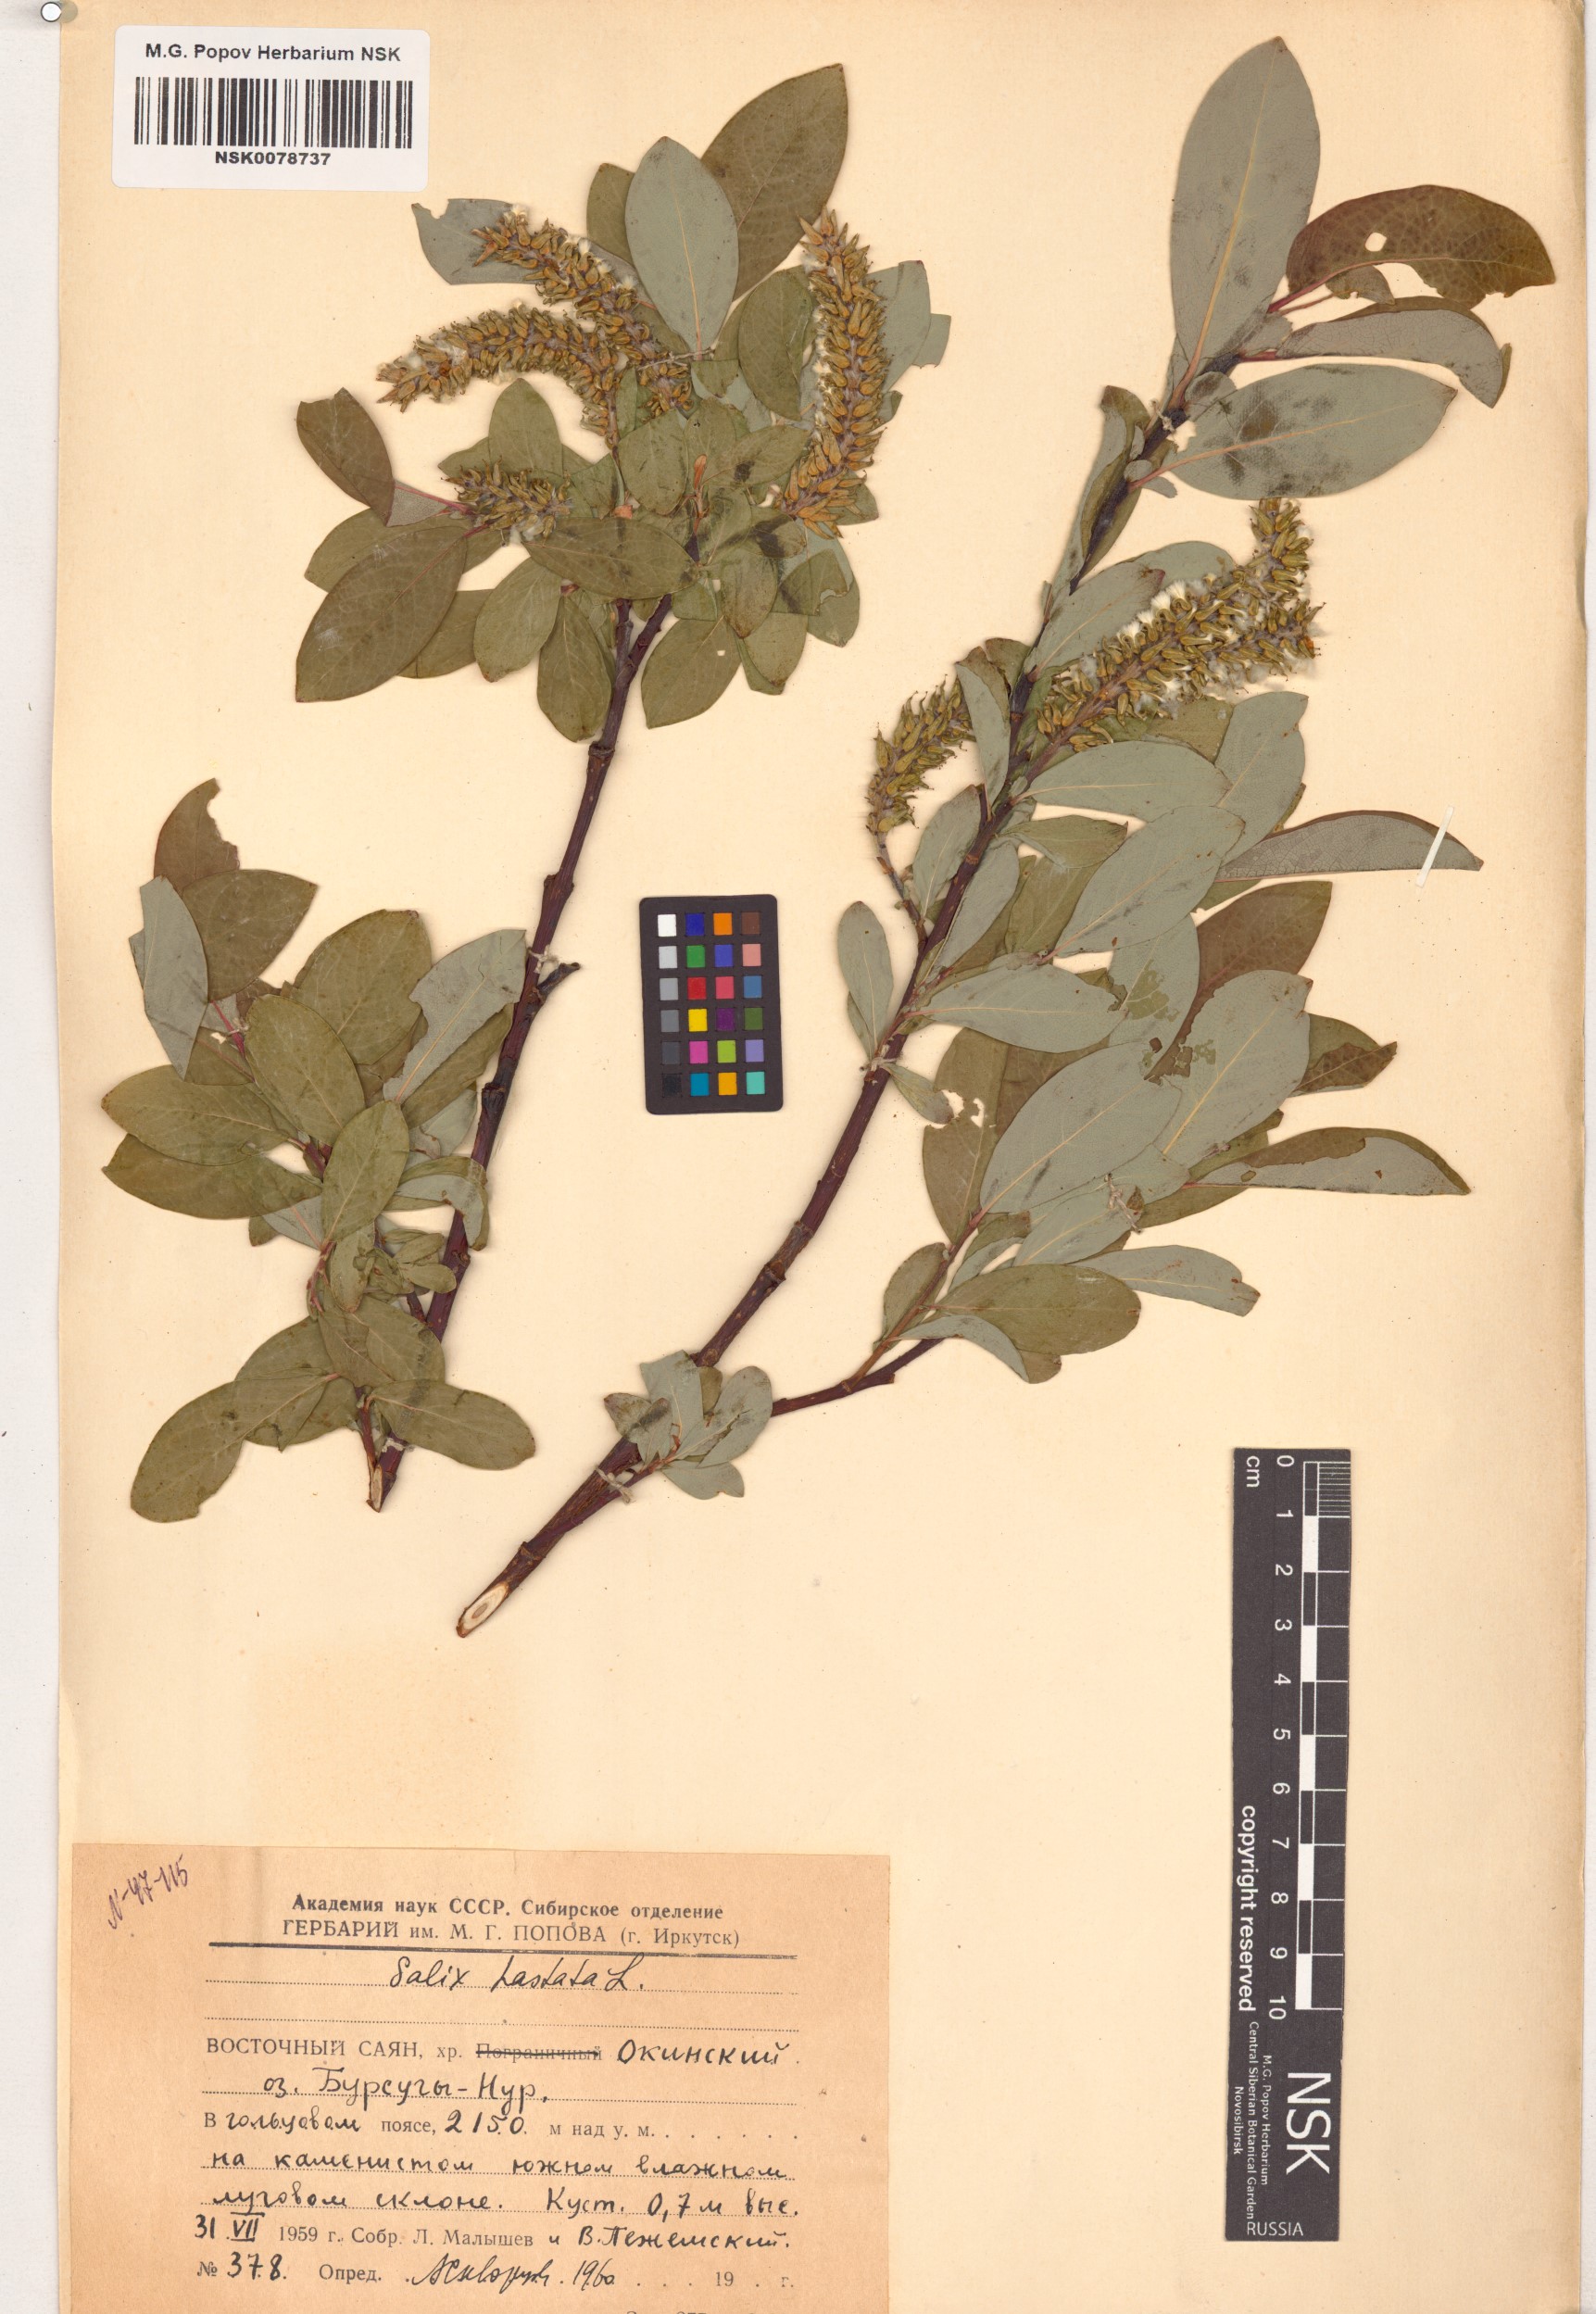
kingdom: Plantae
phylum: Tracheophyta
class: Magnoliopsida
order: Malpighiales
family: Salicaceae
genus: Salix
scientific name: Salix hastata
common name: Halberd willow
